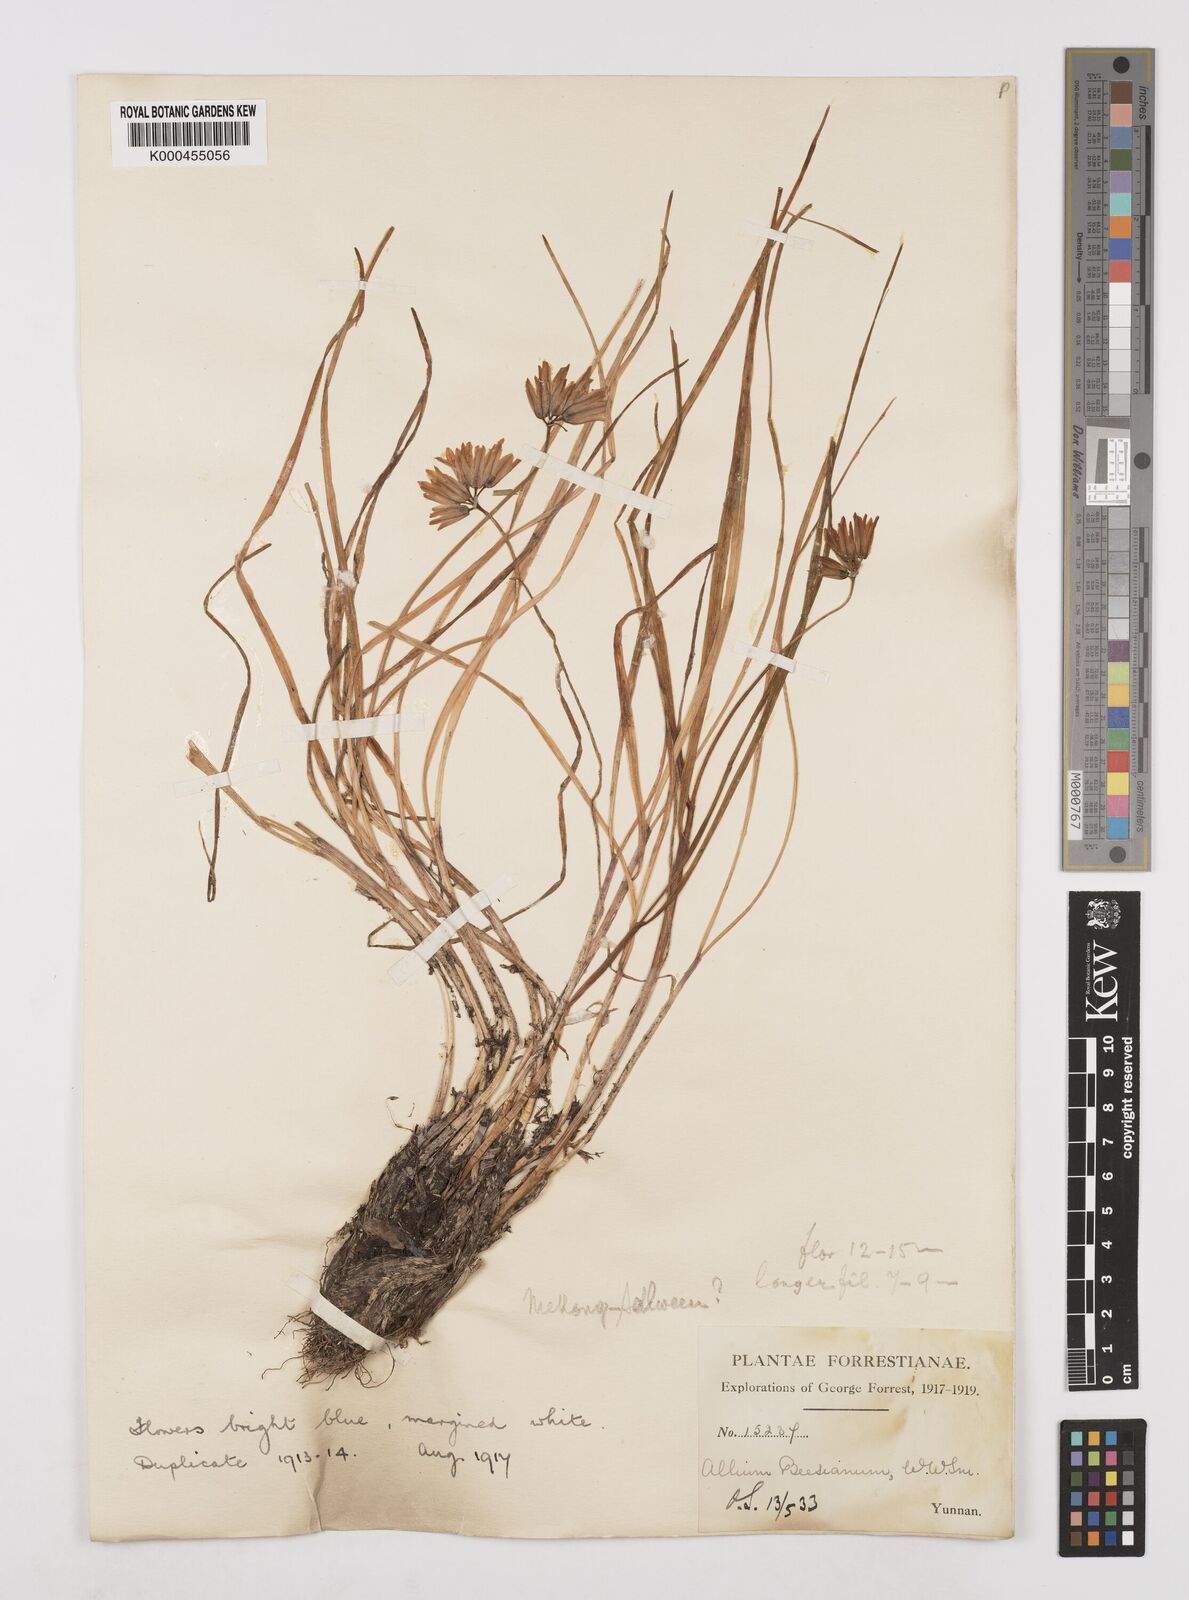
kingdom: Plantae
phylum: Tracheophyta
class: Liliopsida
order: Asparagales
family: Amaryllidaceae
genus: Allium
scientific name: Allium beesianum
